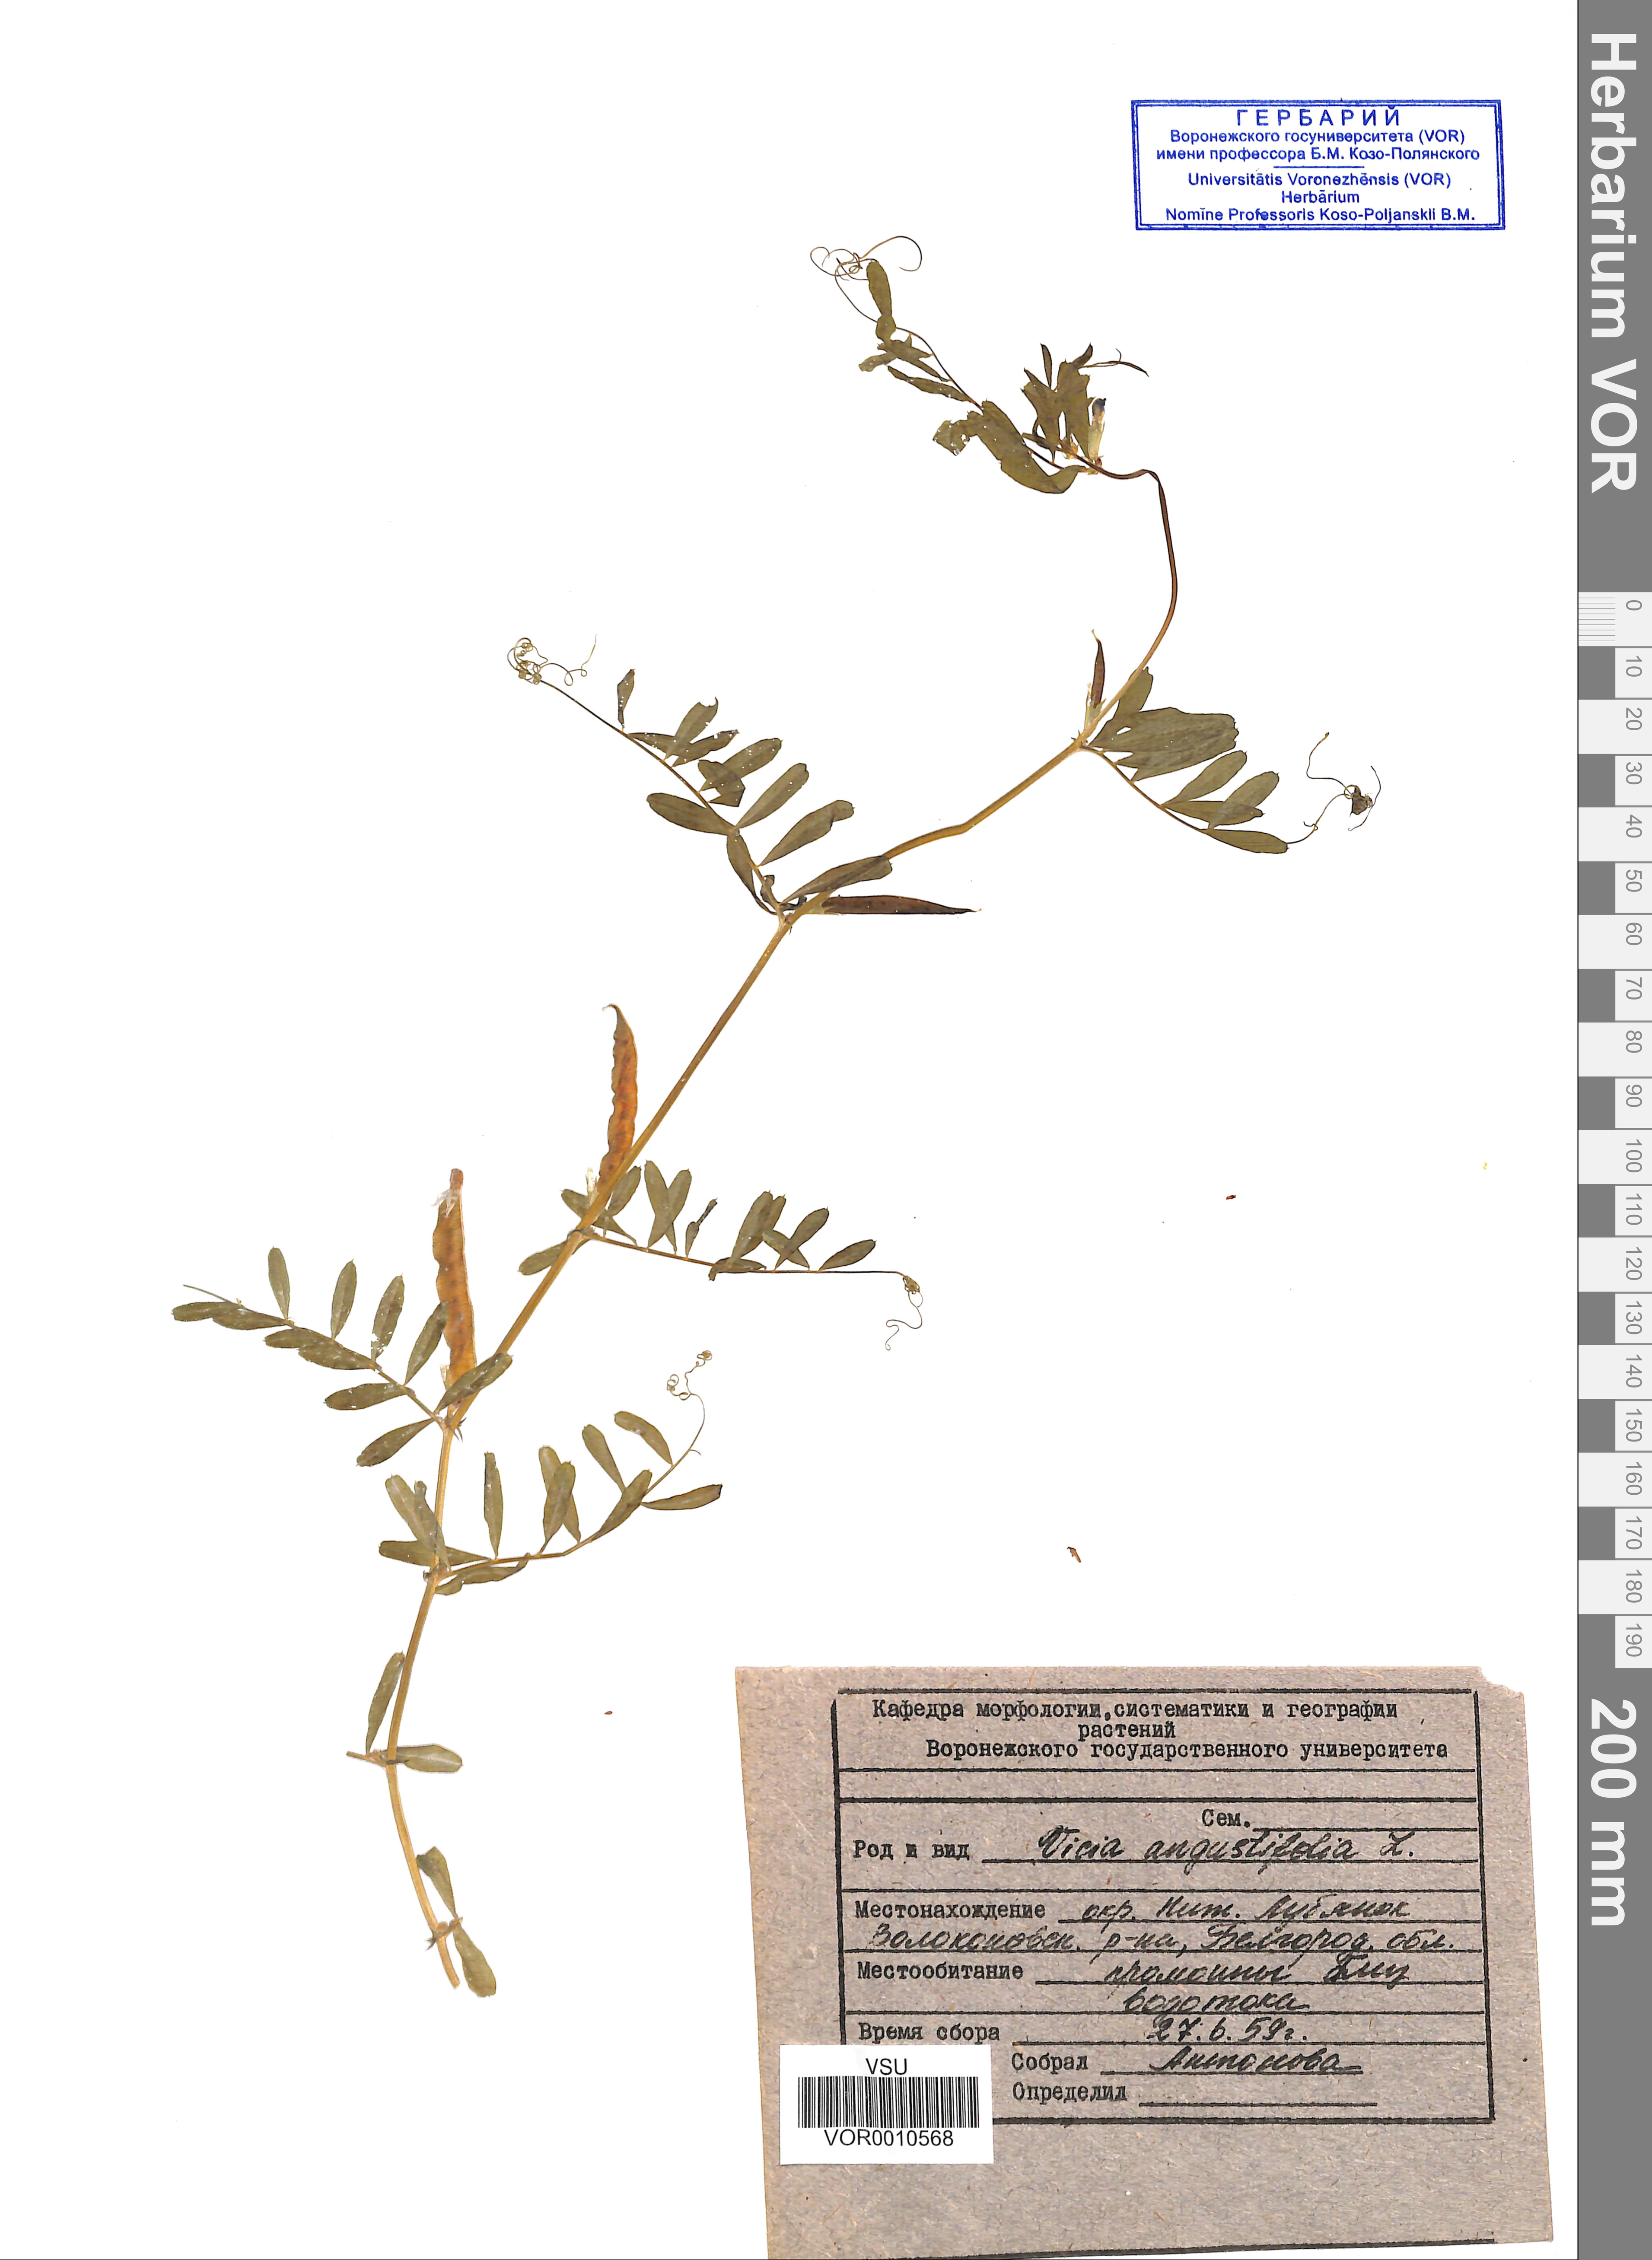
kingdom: Plantae
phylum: Tracheophyta
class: Magnoliopsida
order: Fabales
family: Fabaceae
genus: Vicia
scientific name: Vicia sativa
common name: Garden vetch
